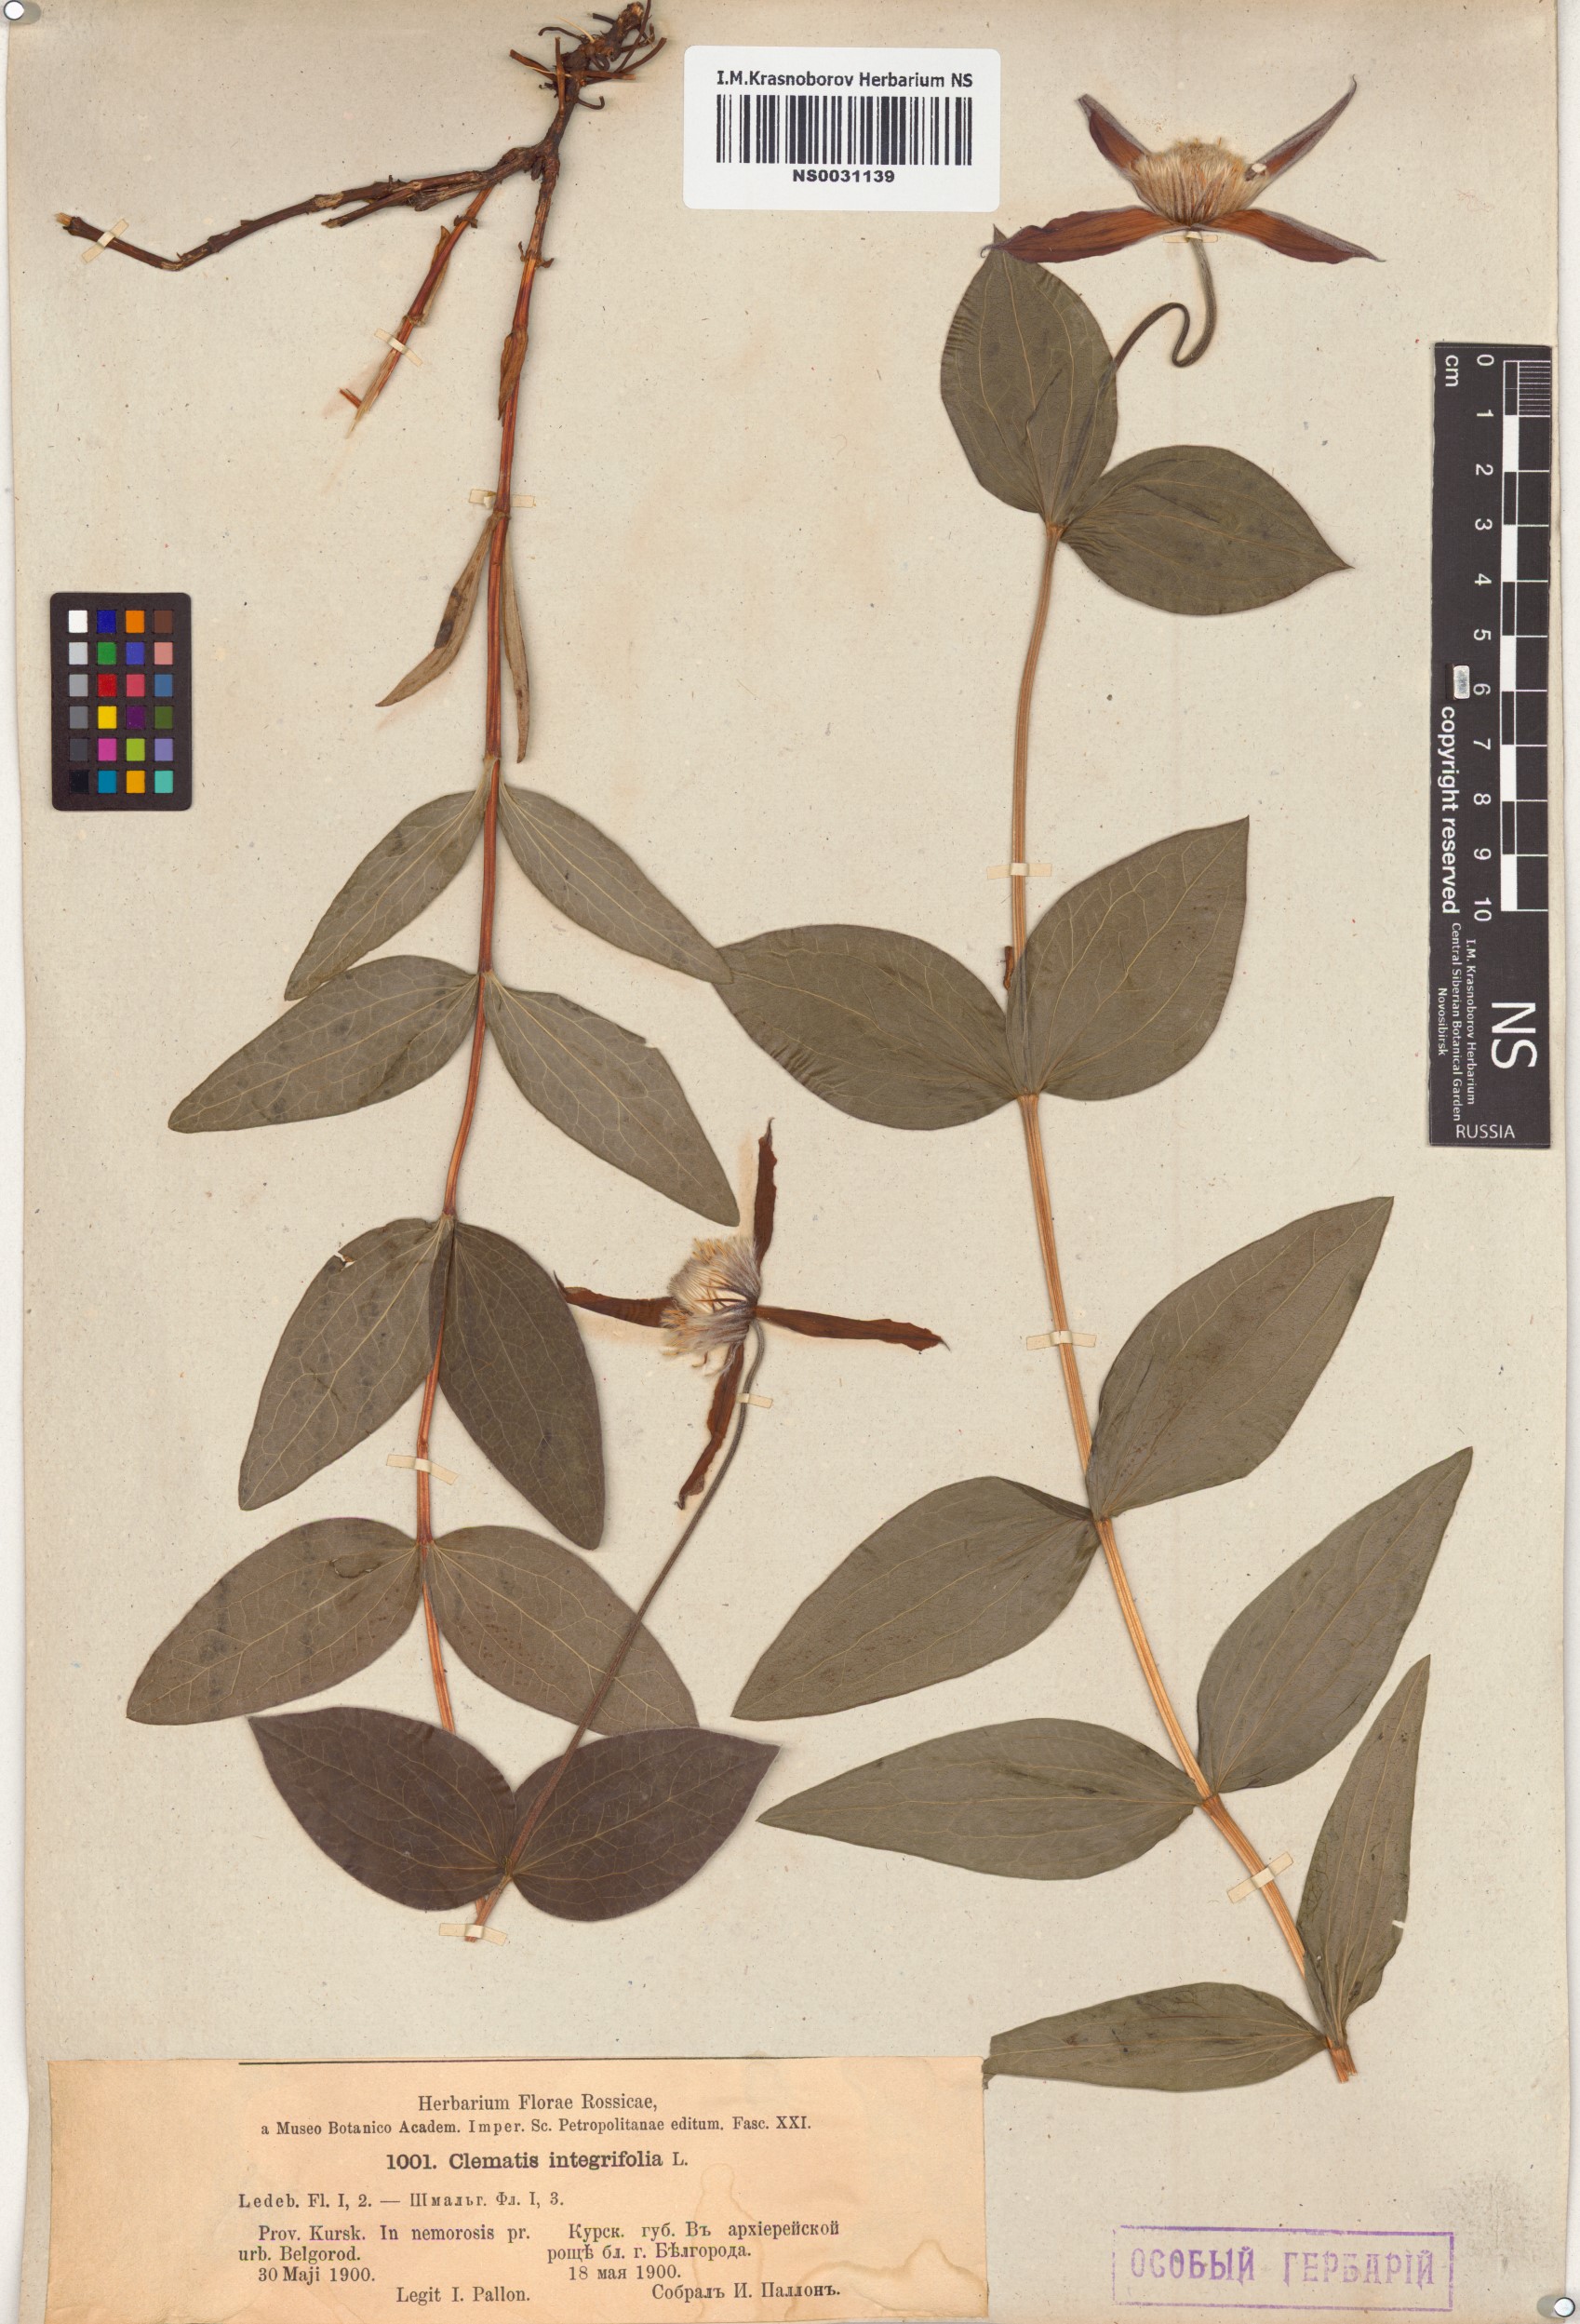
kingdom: Plantae
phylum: Tracheophyta
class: Magnoliopsida
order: Ranunculales
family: Ranunculaceae
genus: Clematis
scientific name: Clematis integrifolia
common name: Solitary clematis
